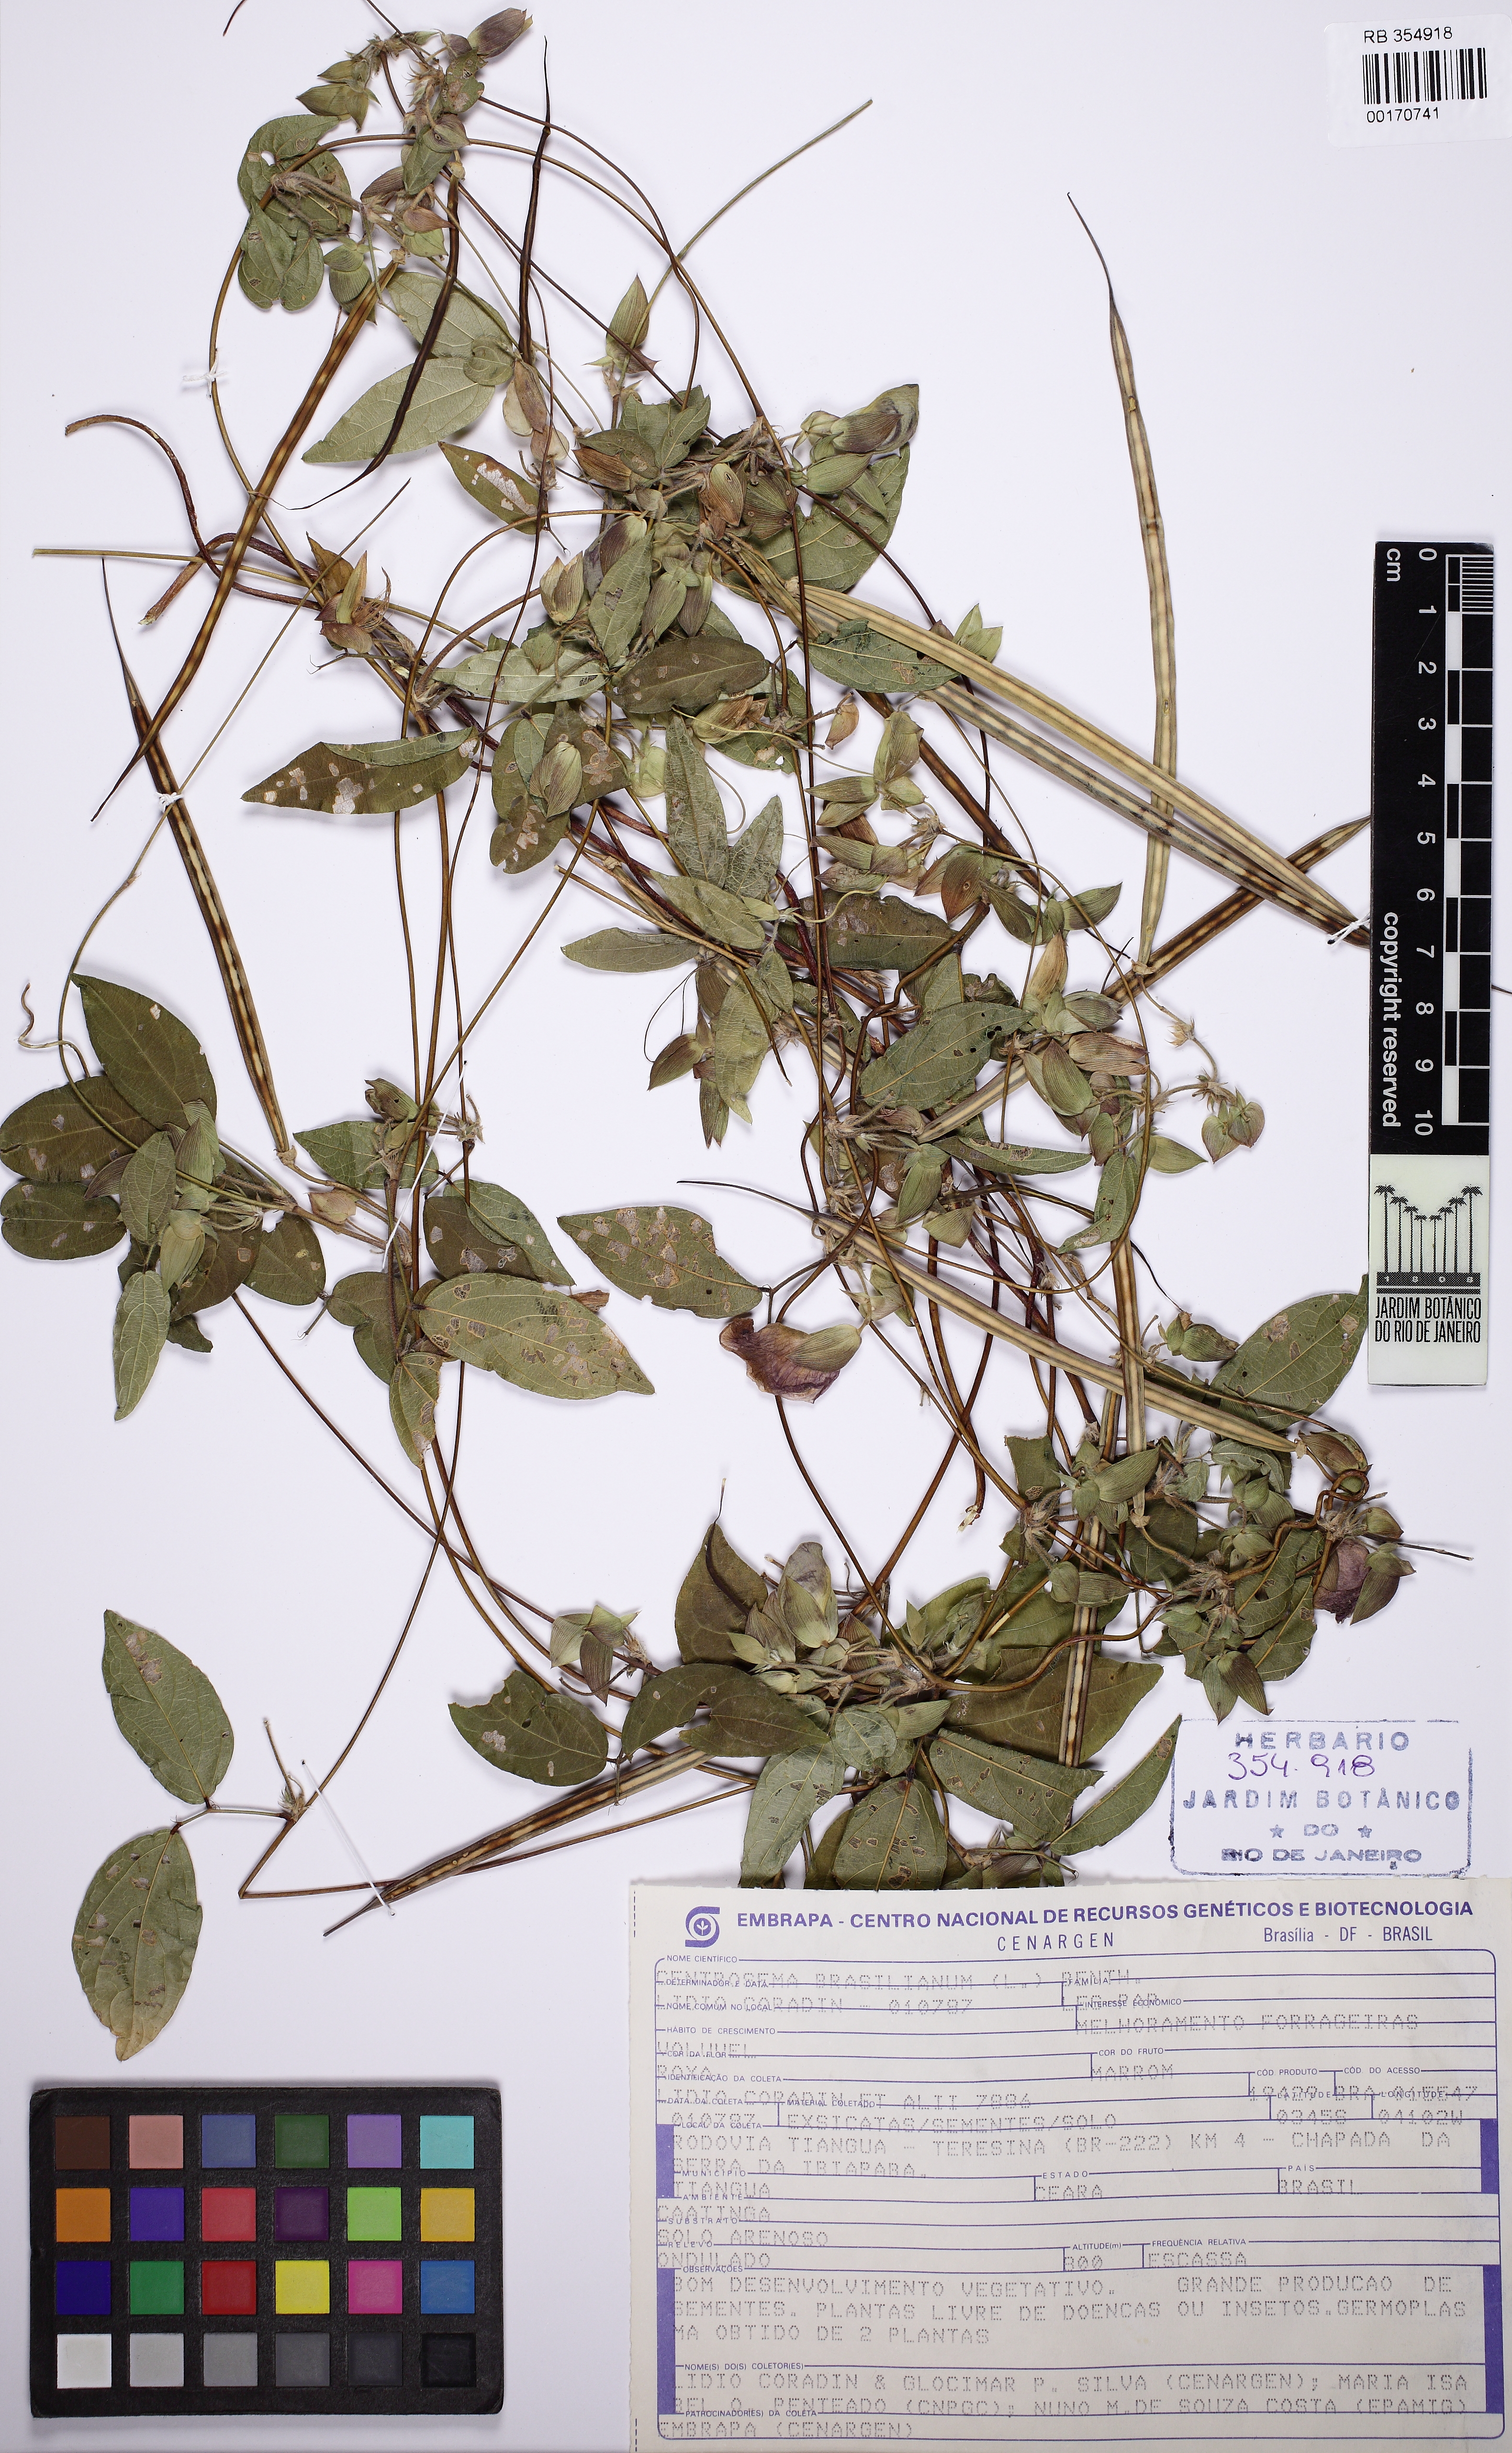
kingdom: Plantae
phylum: Tracheophyta
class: Magnoliopsida
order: Fabales
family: Fabaceae
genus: Centrosema
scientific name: Centrosema brasilianum
